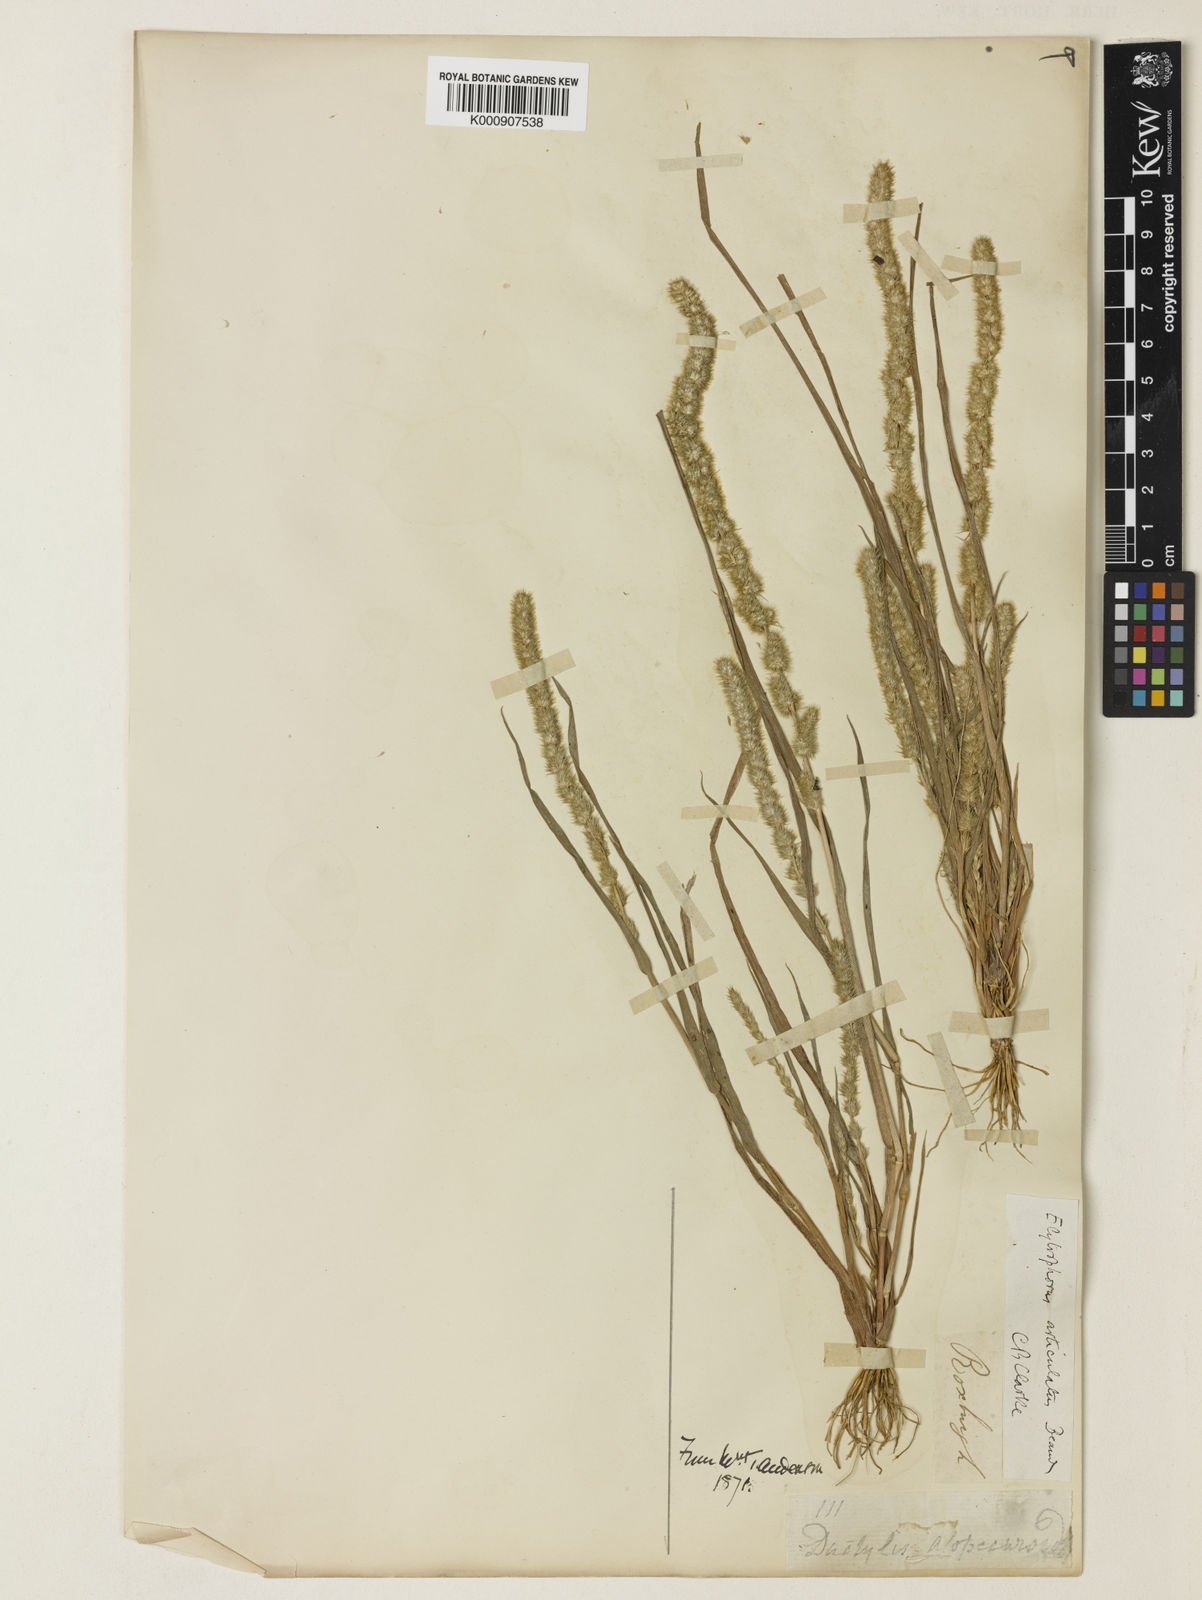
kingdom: Plantae
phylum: Tracheophyta
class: Liliopsida
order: Poales
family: Poaceae
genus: Elytrophorus
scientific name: Elytrophorus spicatus
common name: Spike grass
